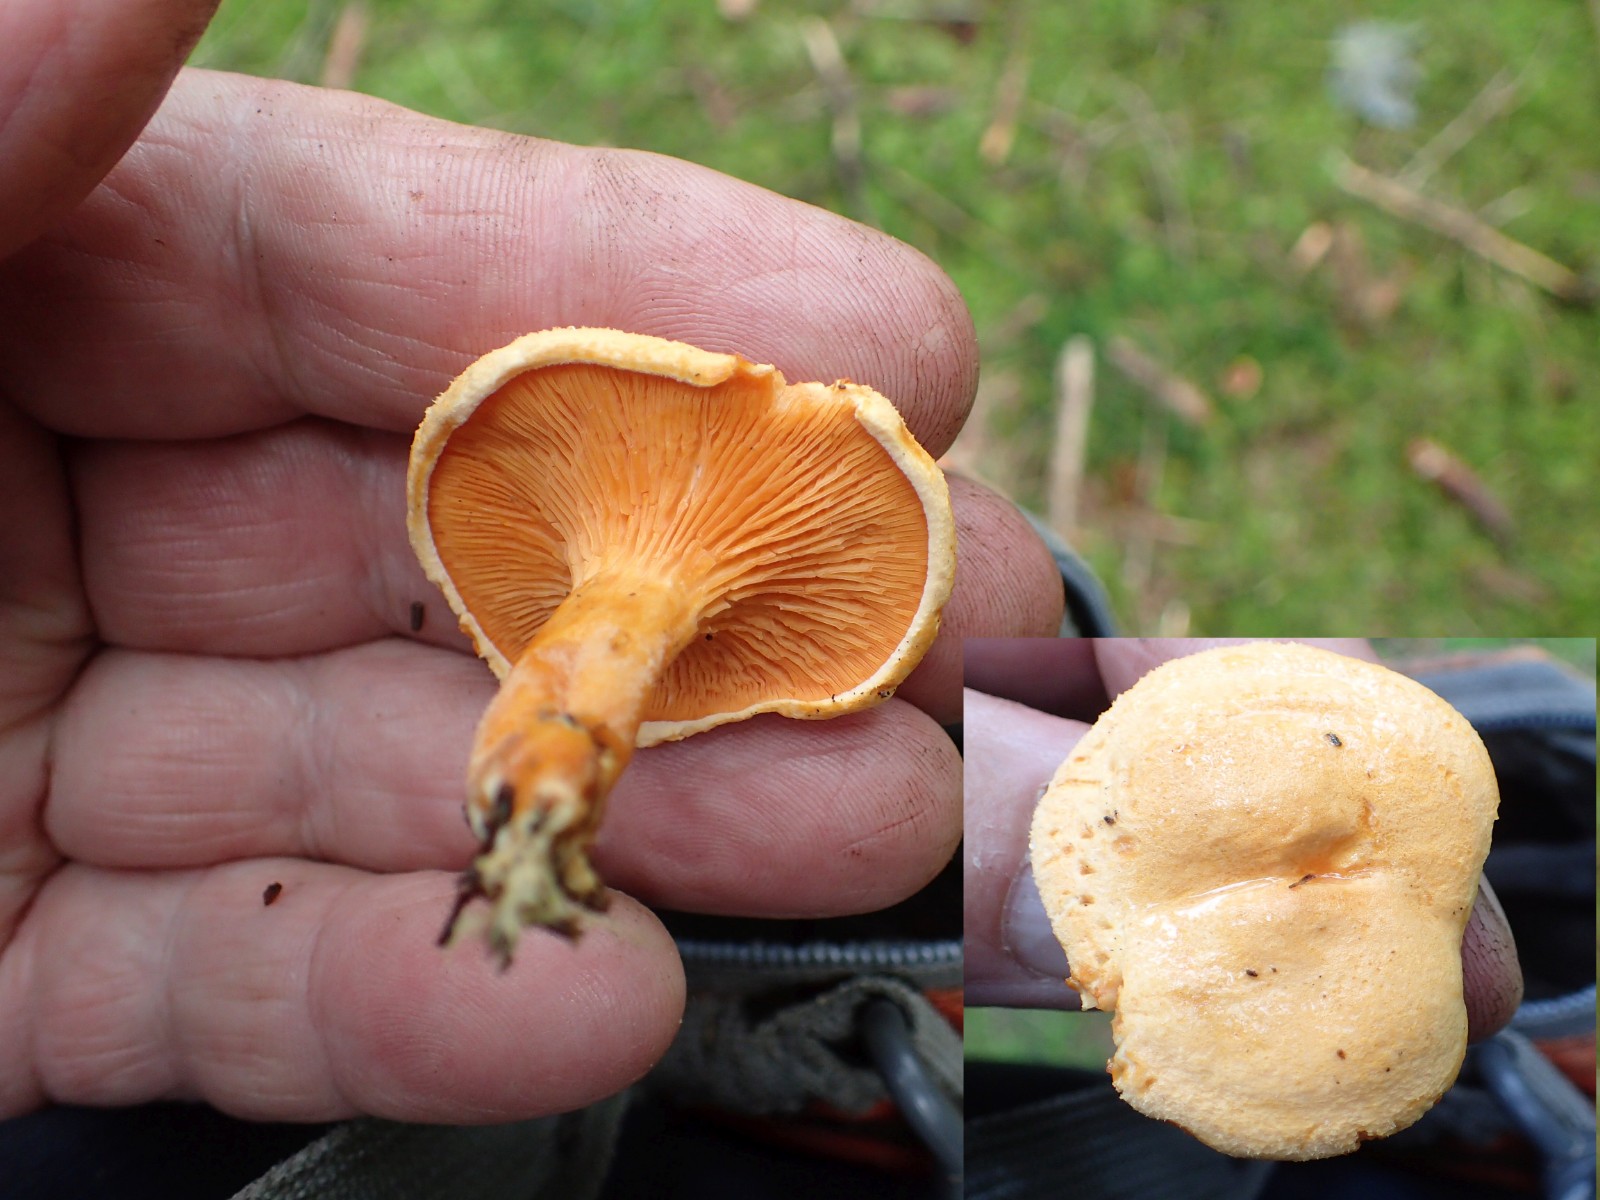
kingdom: Fungi
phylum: Basidiomycota
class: Agaricomycetes
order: Boletales
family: Hygrophoropsidaceae
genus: Hygrophoropsis
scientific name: Hygrophoropsis aurantiaca
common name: almindelig orangekantarel
